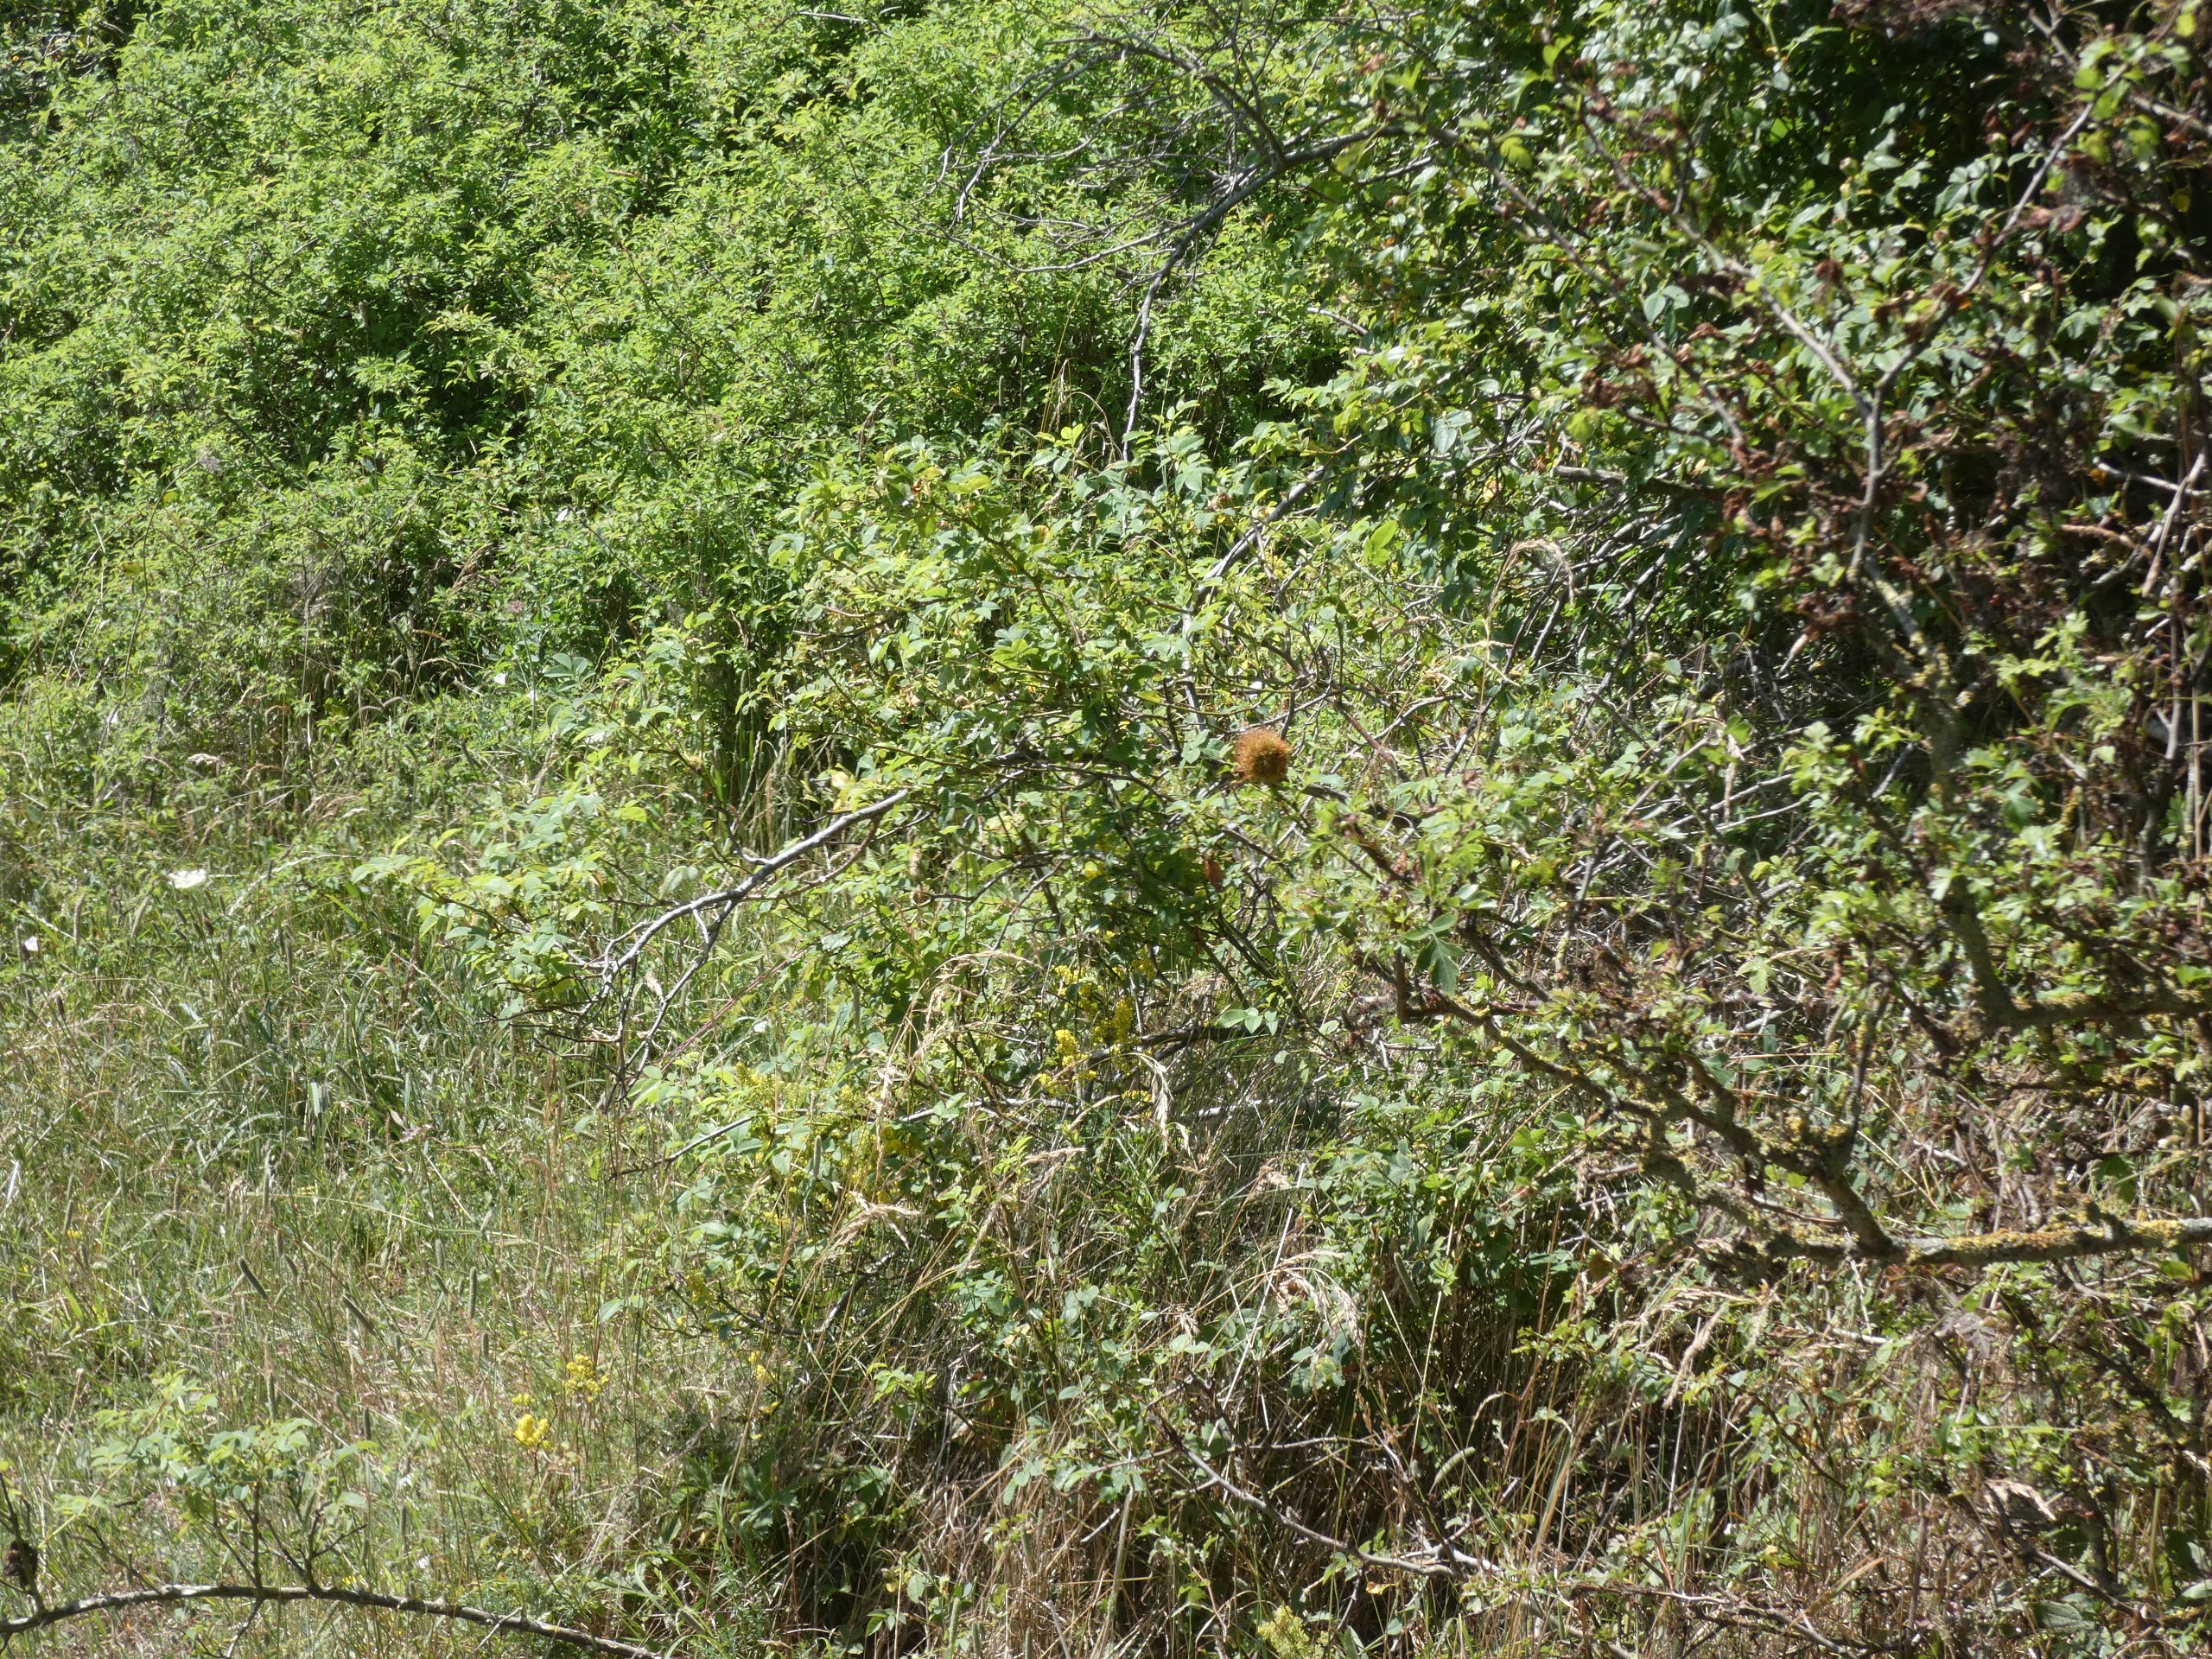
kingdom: Animalia
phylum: Arthropoda
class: Insecta
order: Hymenoptera
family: Cynipidae
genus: Diplolepis
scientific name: Diplolepis rosae
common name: Bedeguargalhveps
